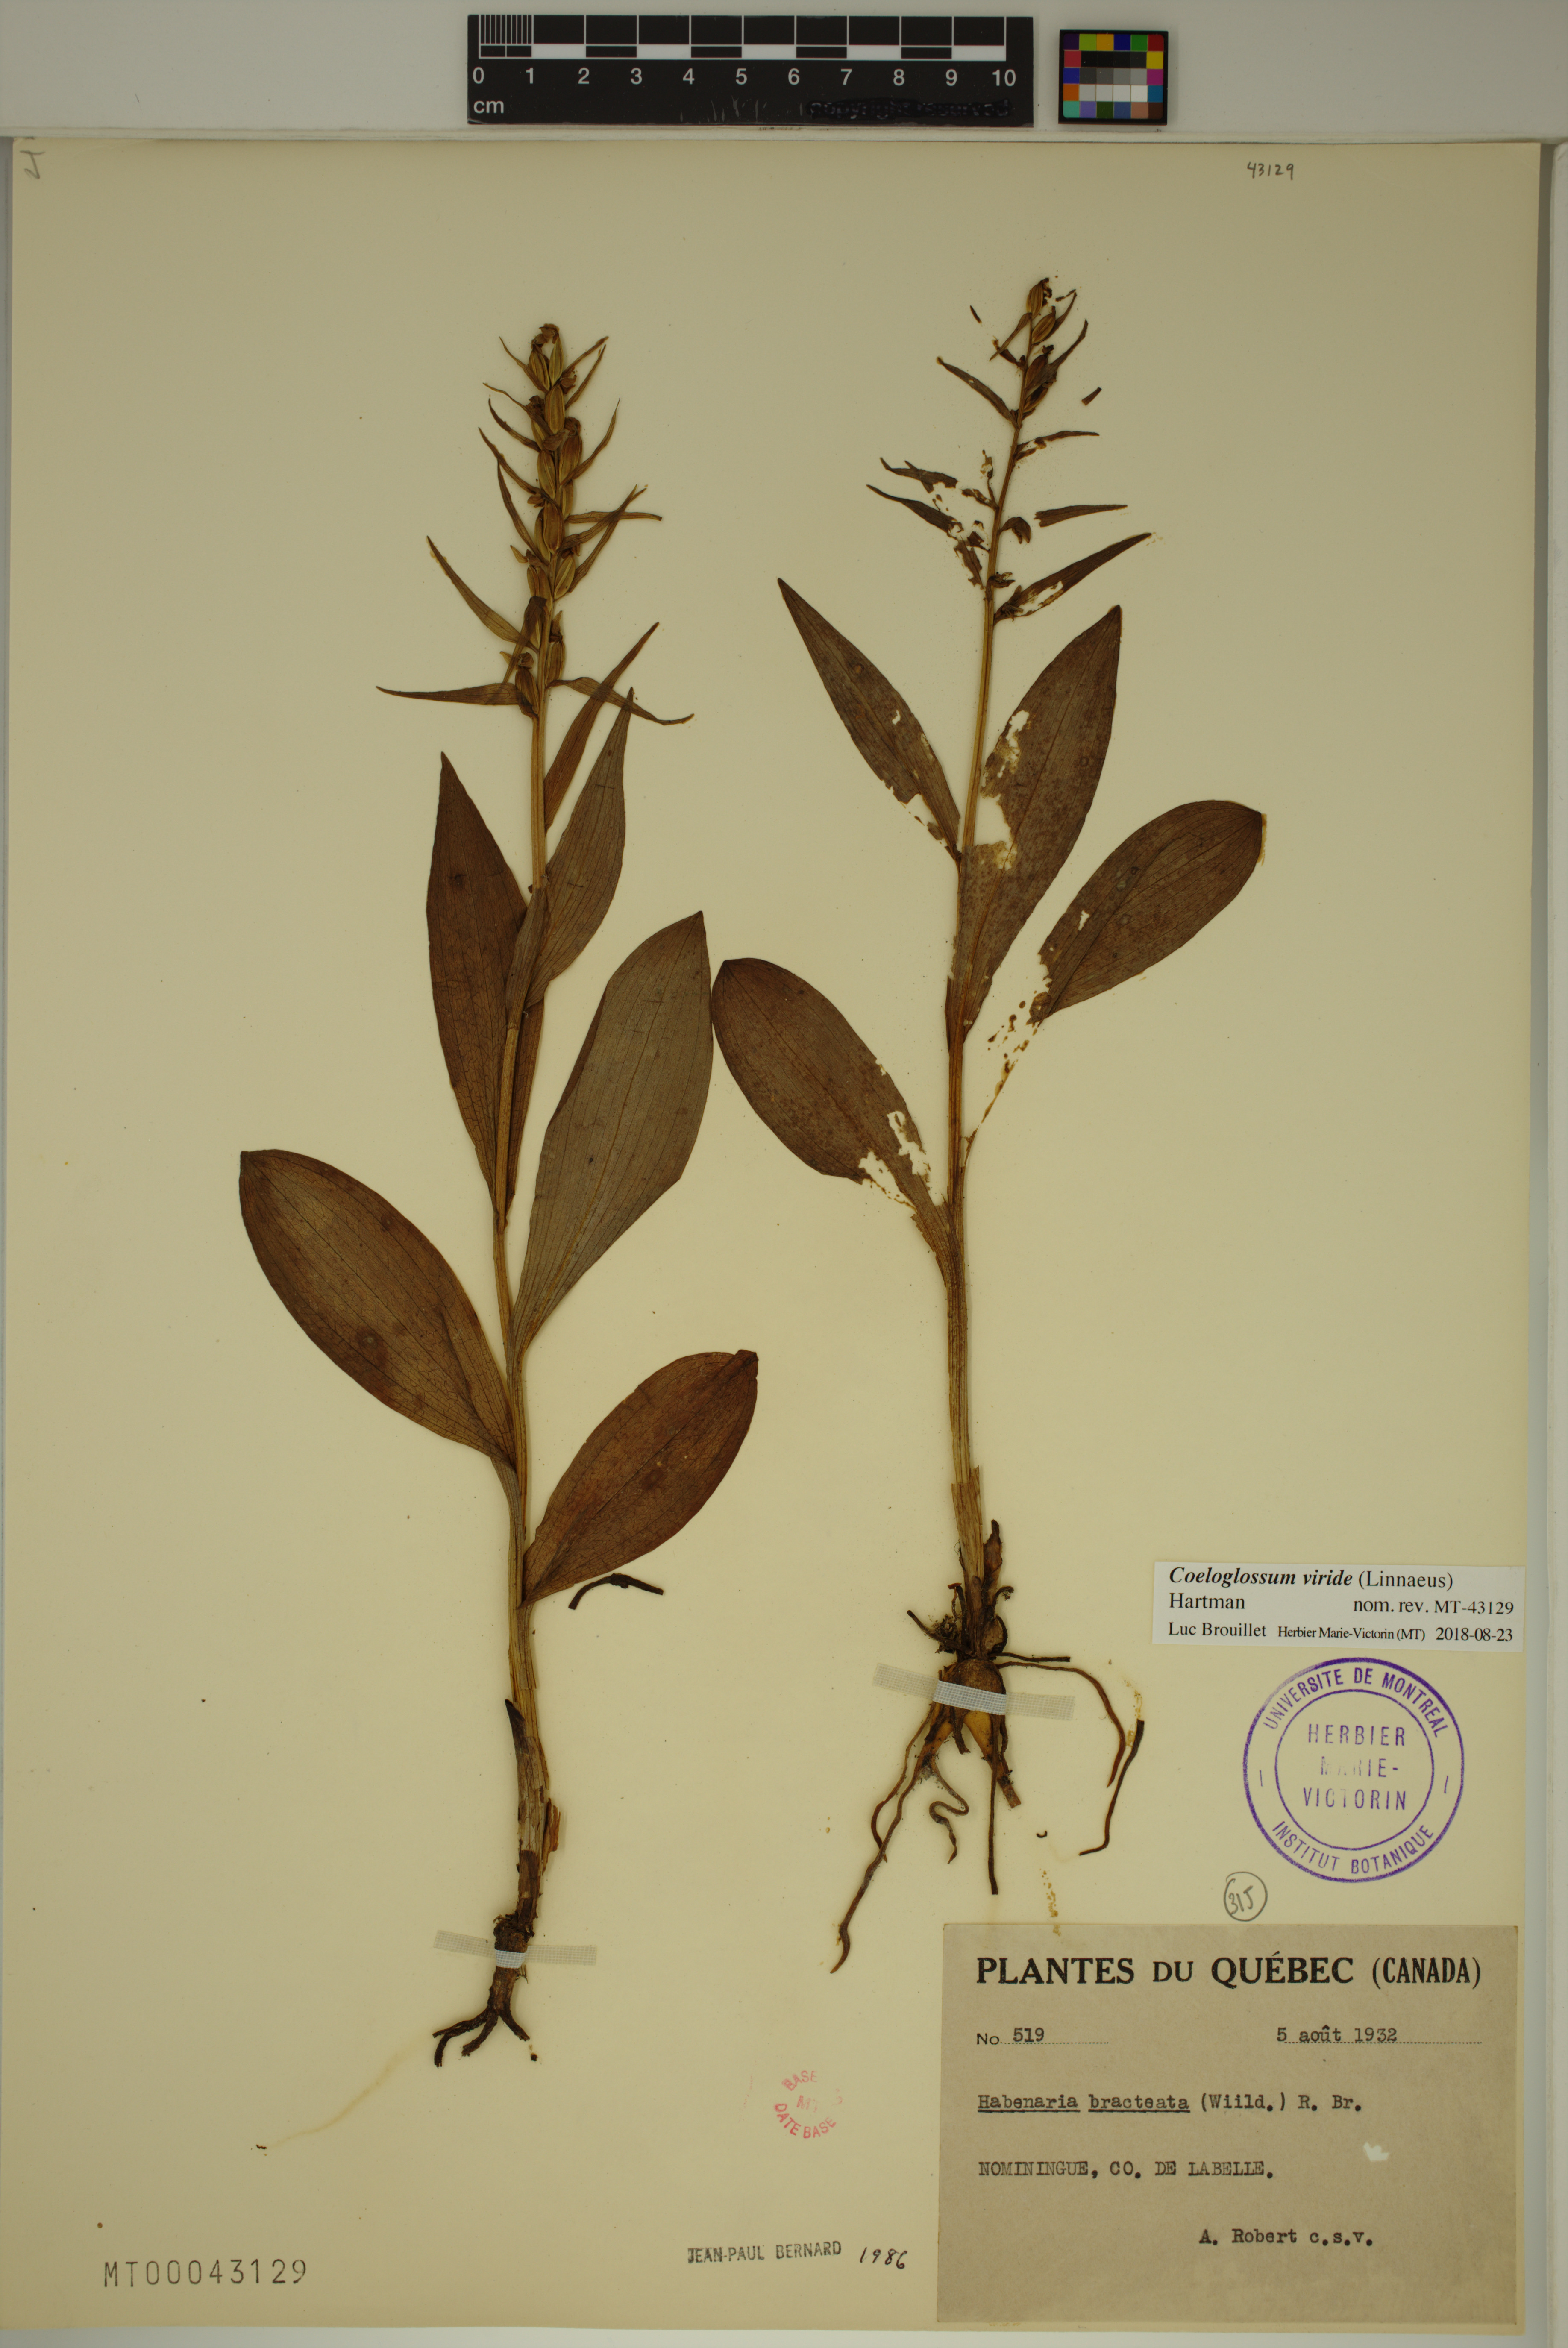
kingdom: Plantae
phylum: Tracheophyta
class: Liliopsida
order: Asparagales
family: Orchidaceae
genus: Dactylorhiza
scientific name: Dactylorhiza viridis
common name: Longbract frog orchid
